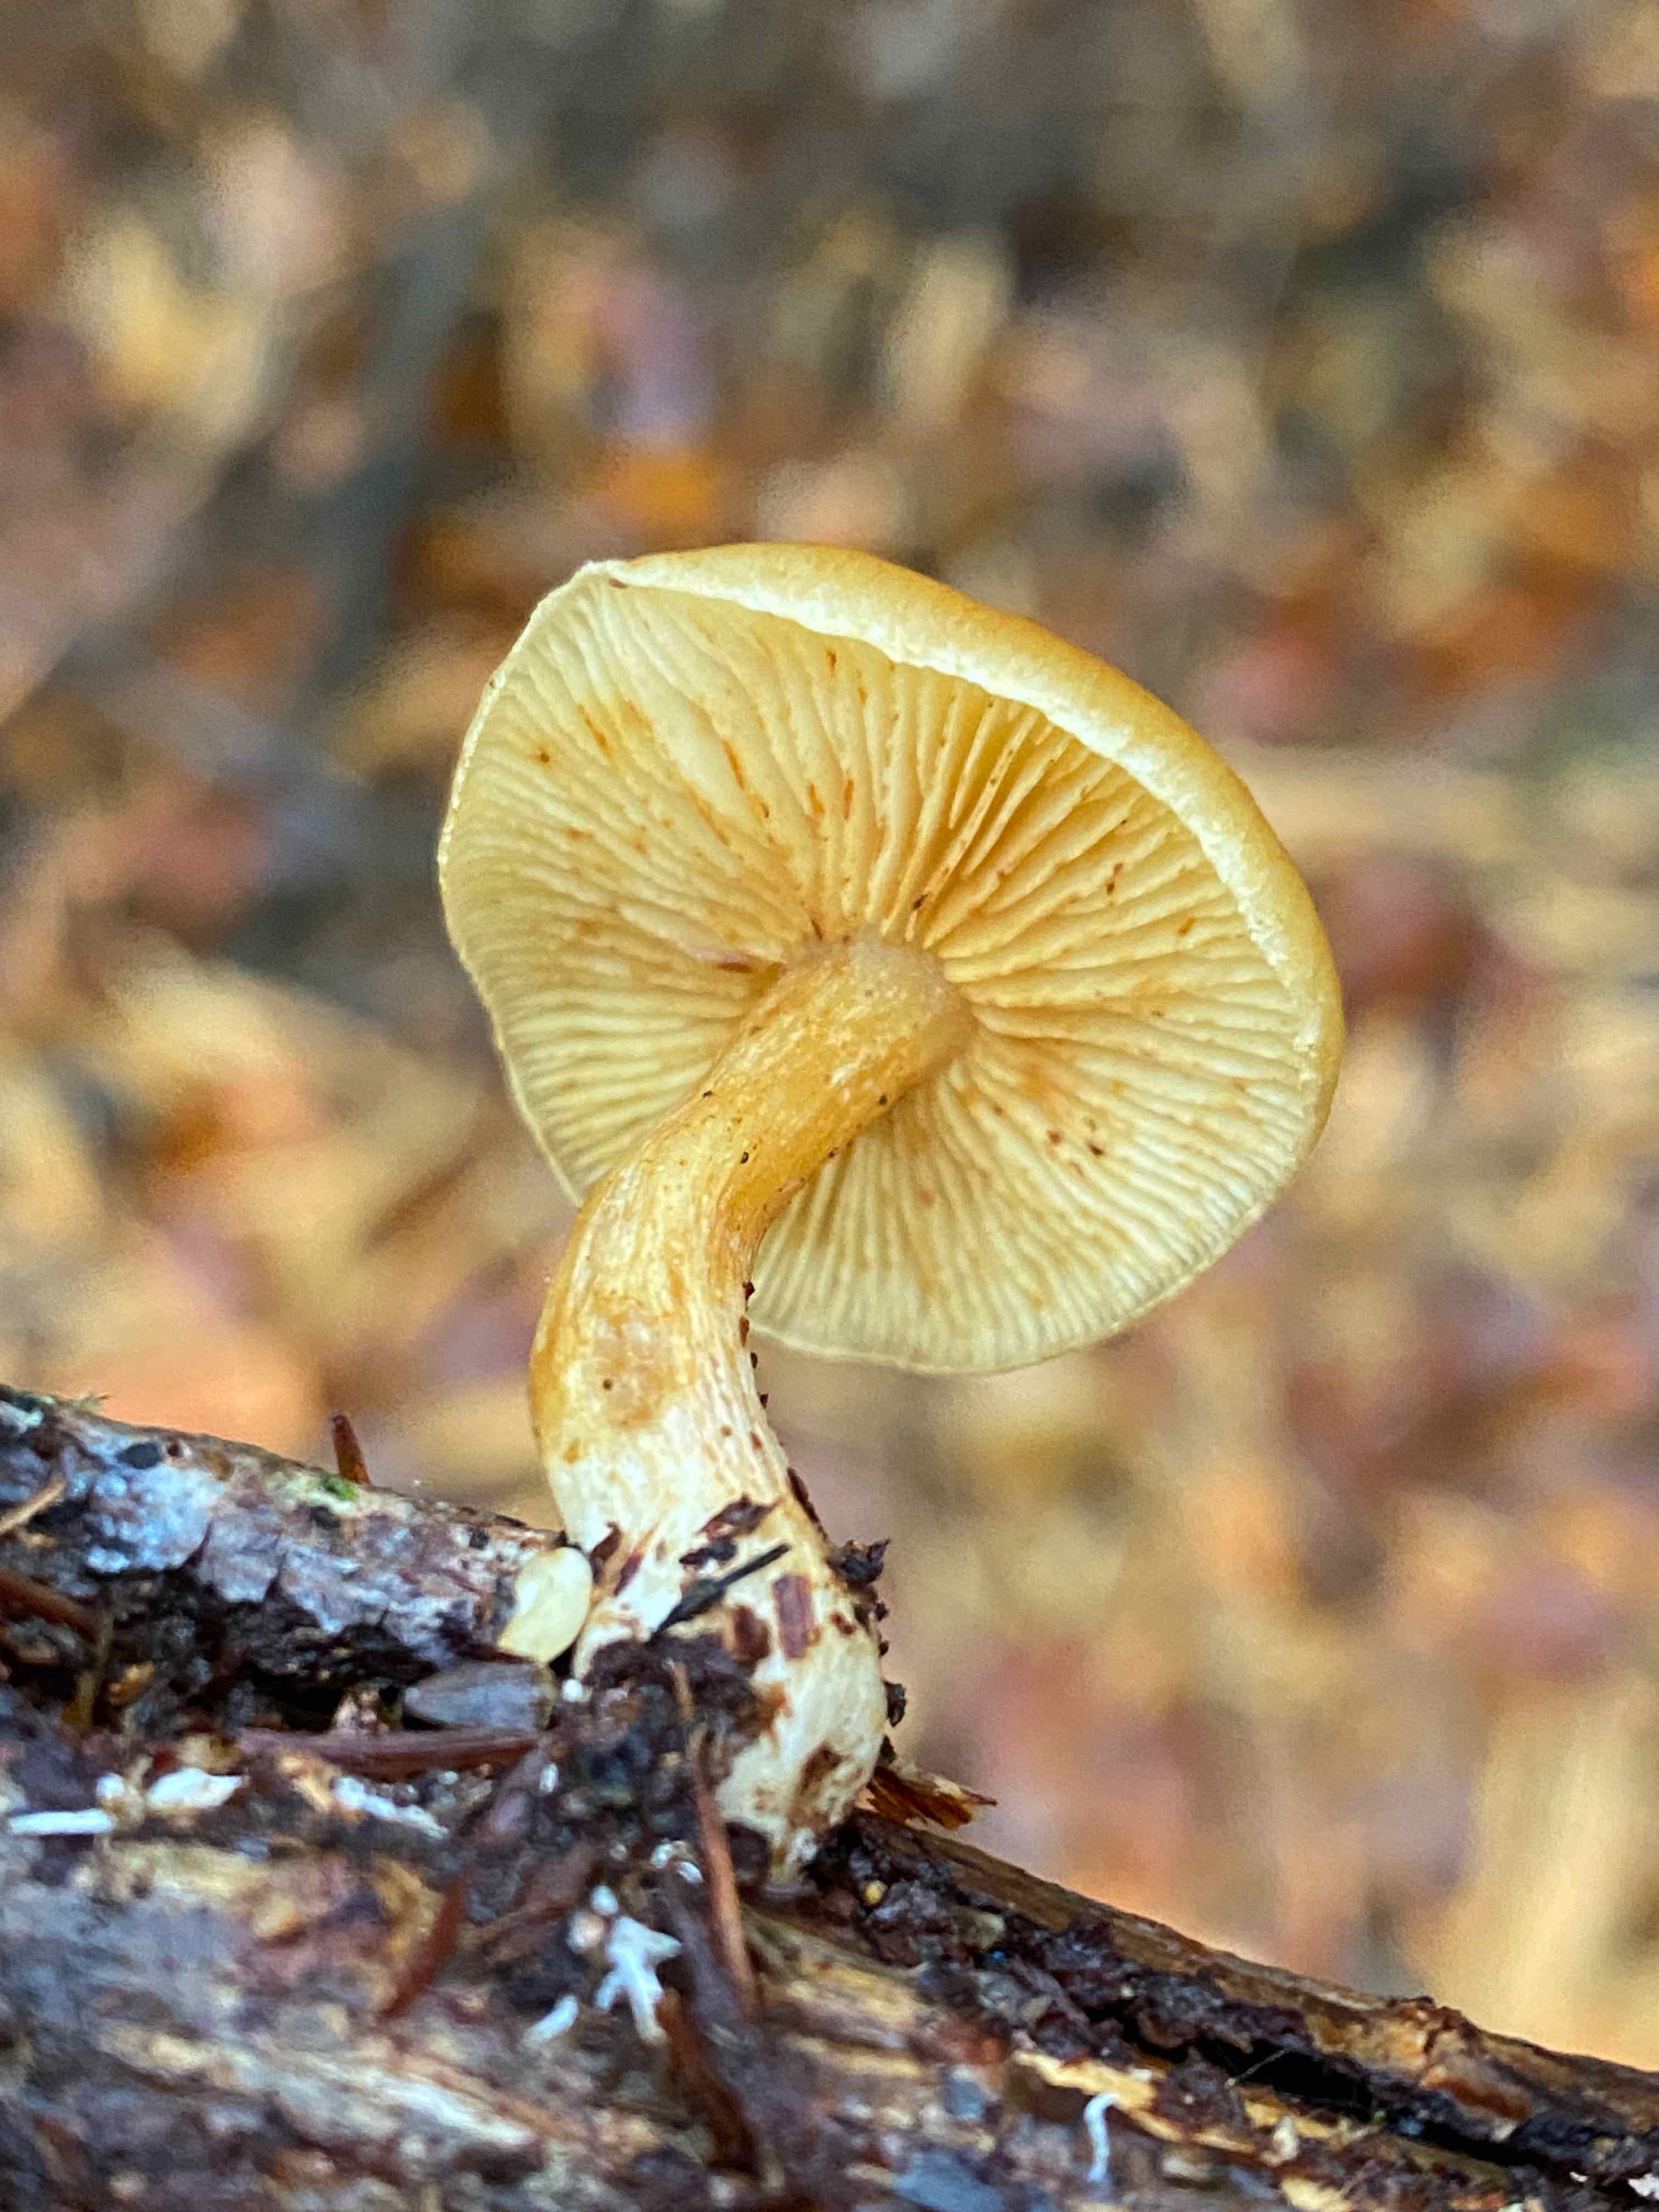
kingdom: Fungi
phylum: Basidiomycota
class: Agaricomycetes
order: Agaricales
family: Hymenogastraceae
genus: Gymnopilus
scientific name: Gymnopilus penetrans
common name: plettet flammehat
